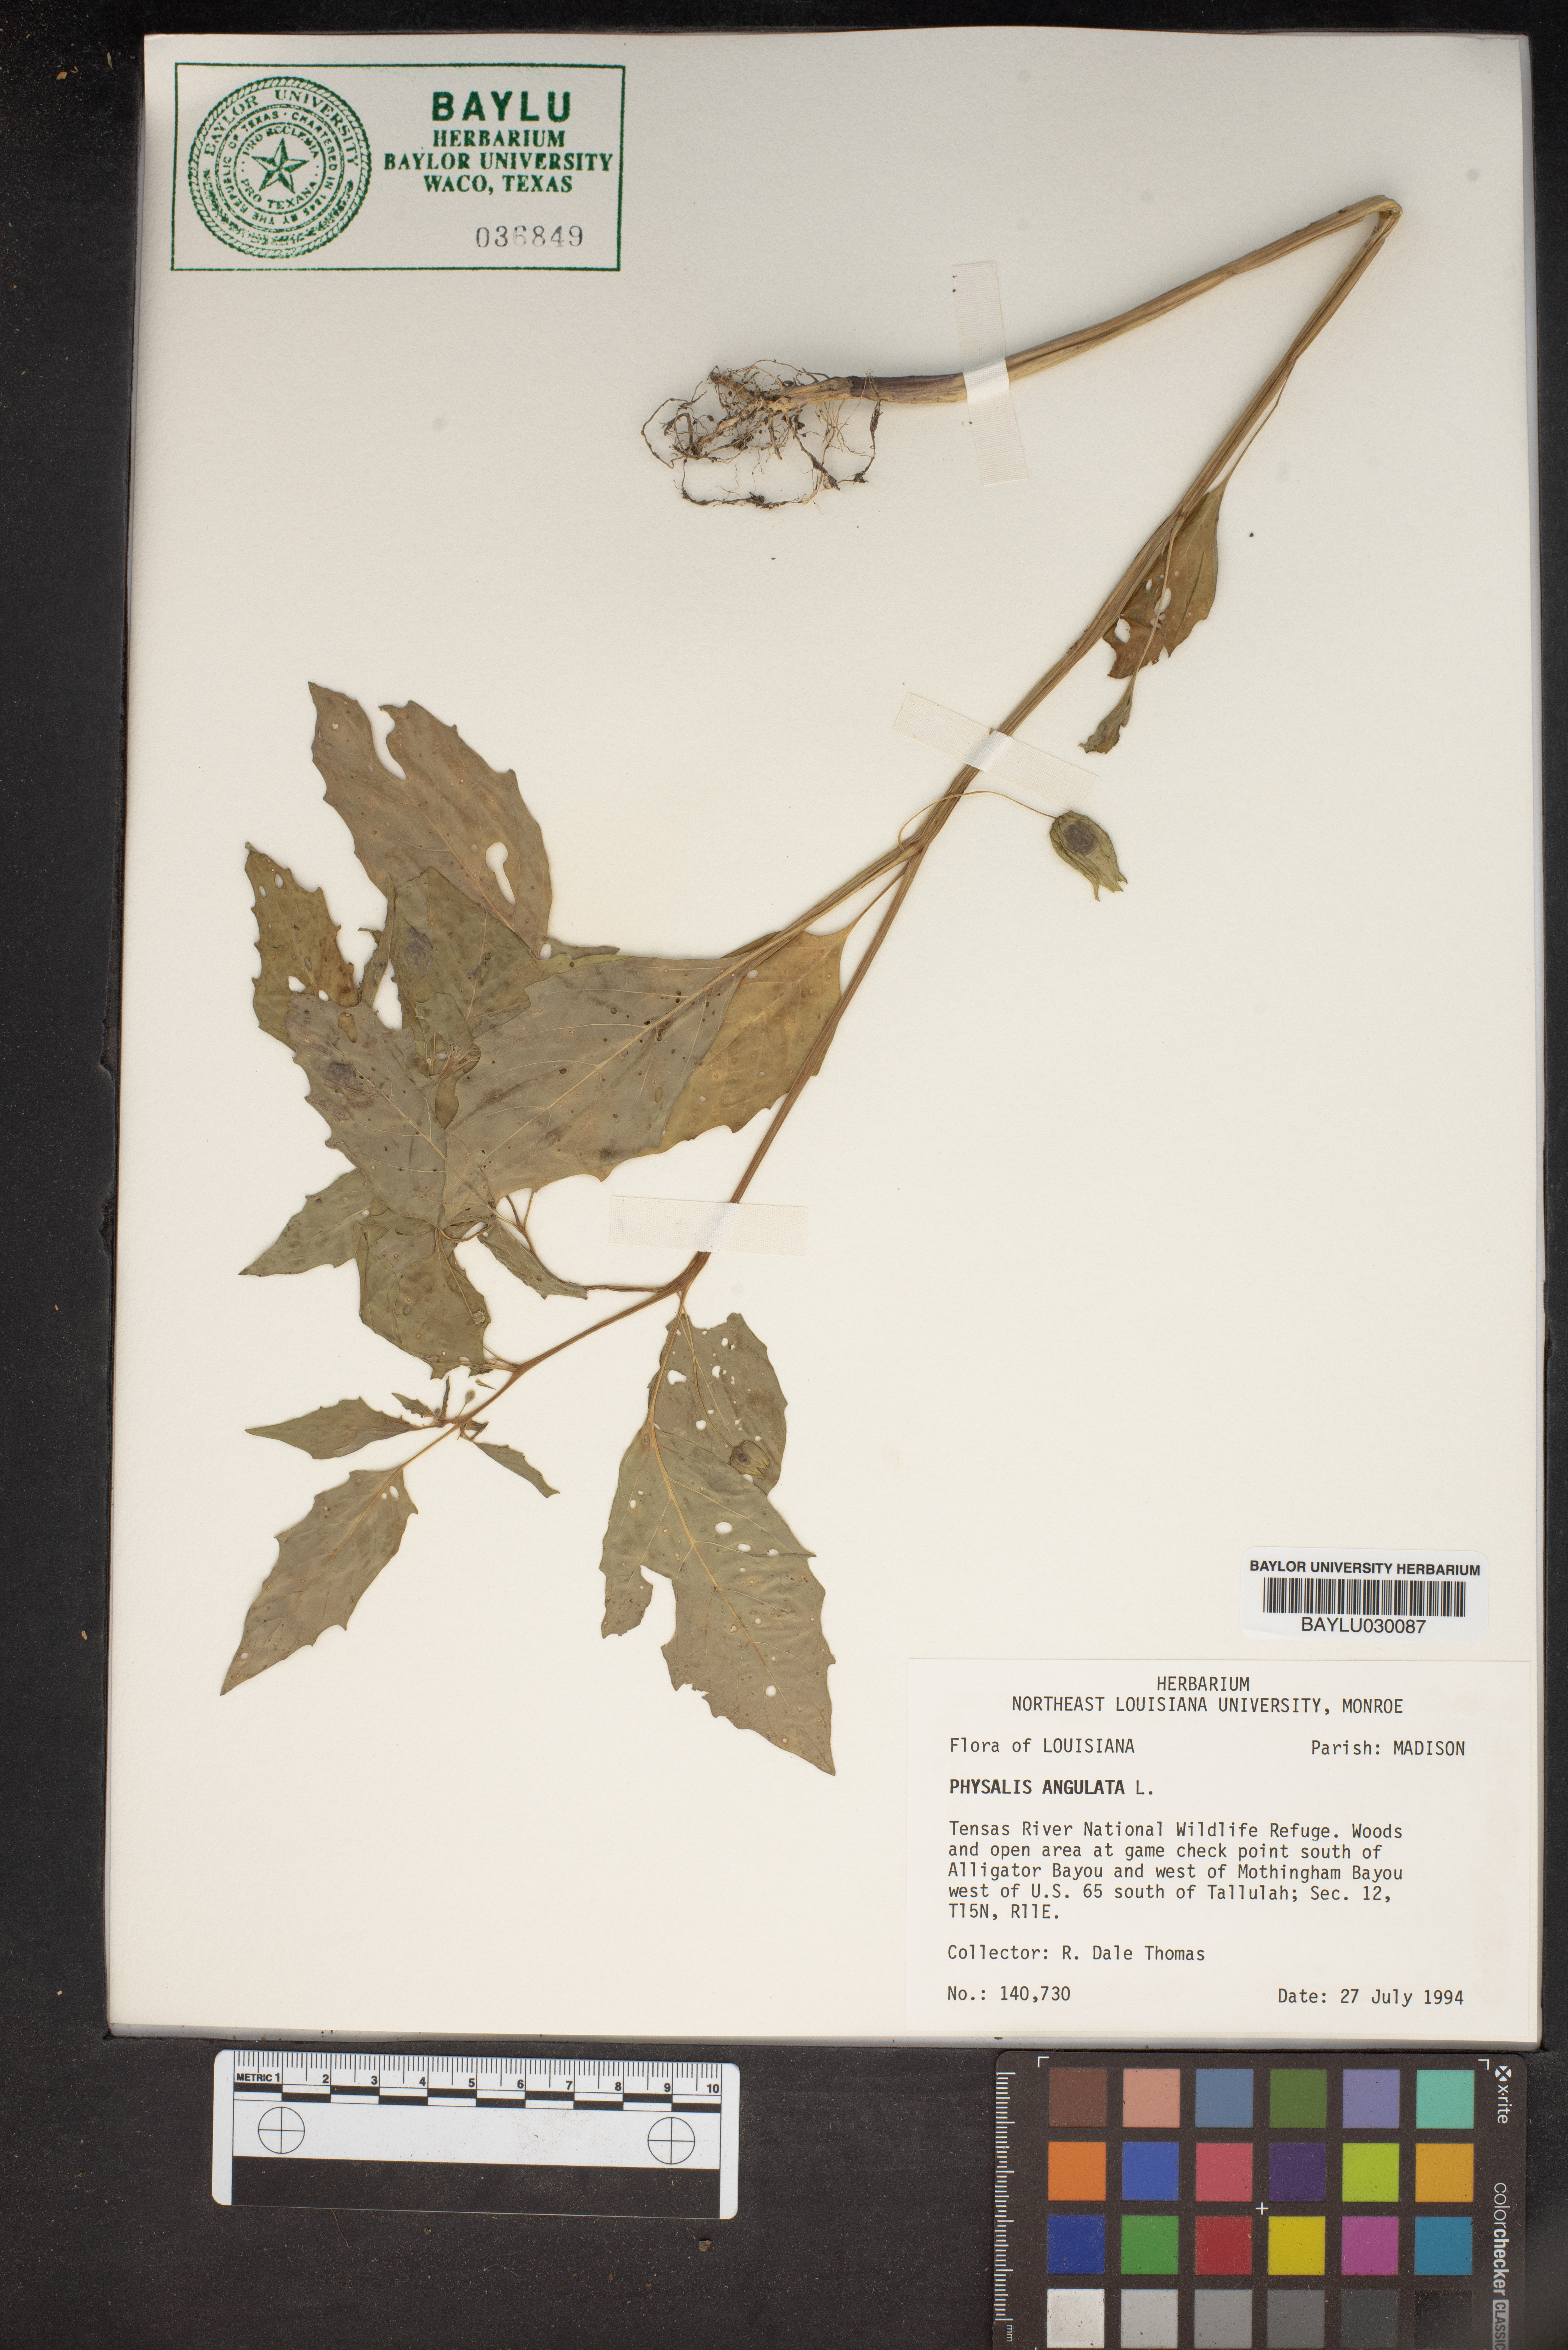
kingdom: Plantae
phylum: Tracheophyta
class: Magnoliopsida
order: Solanales
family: Solanaceae
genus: Physalis
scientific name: Physalis angulata
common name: Angular winter-cherry
